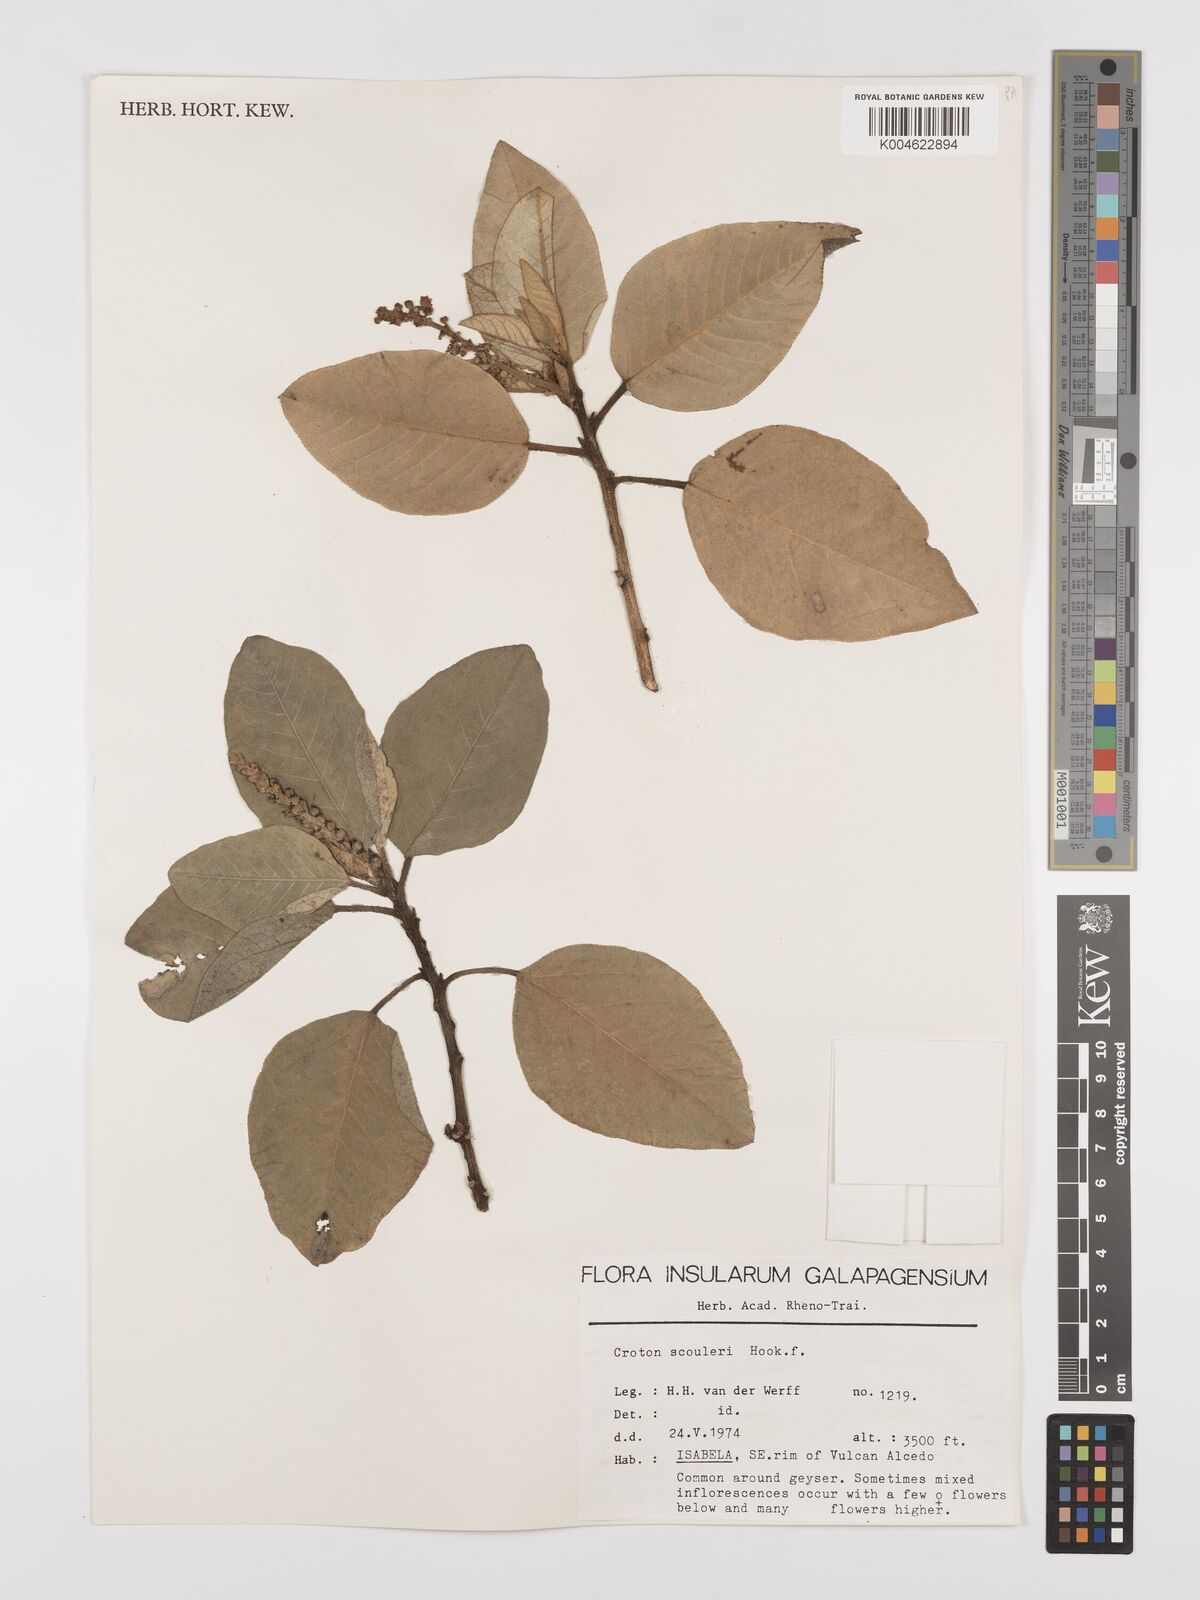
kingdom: Plantae
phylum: Tracheophyta
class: Magnoliopsida
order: Malpighiales
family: Euphorbiaceae
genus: Croton
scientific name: Croton scouleri
